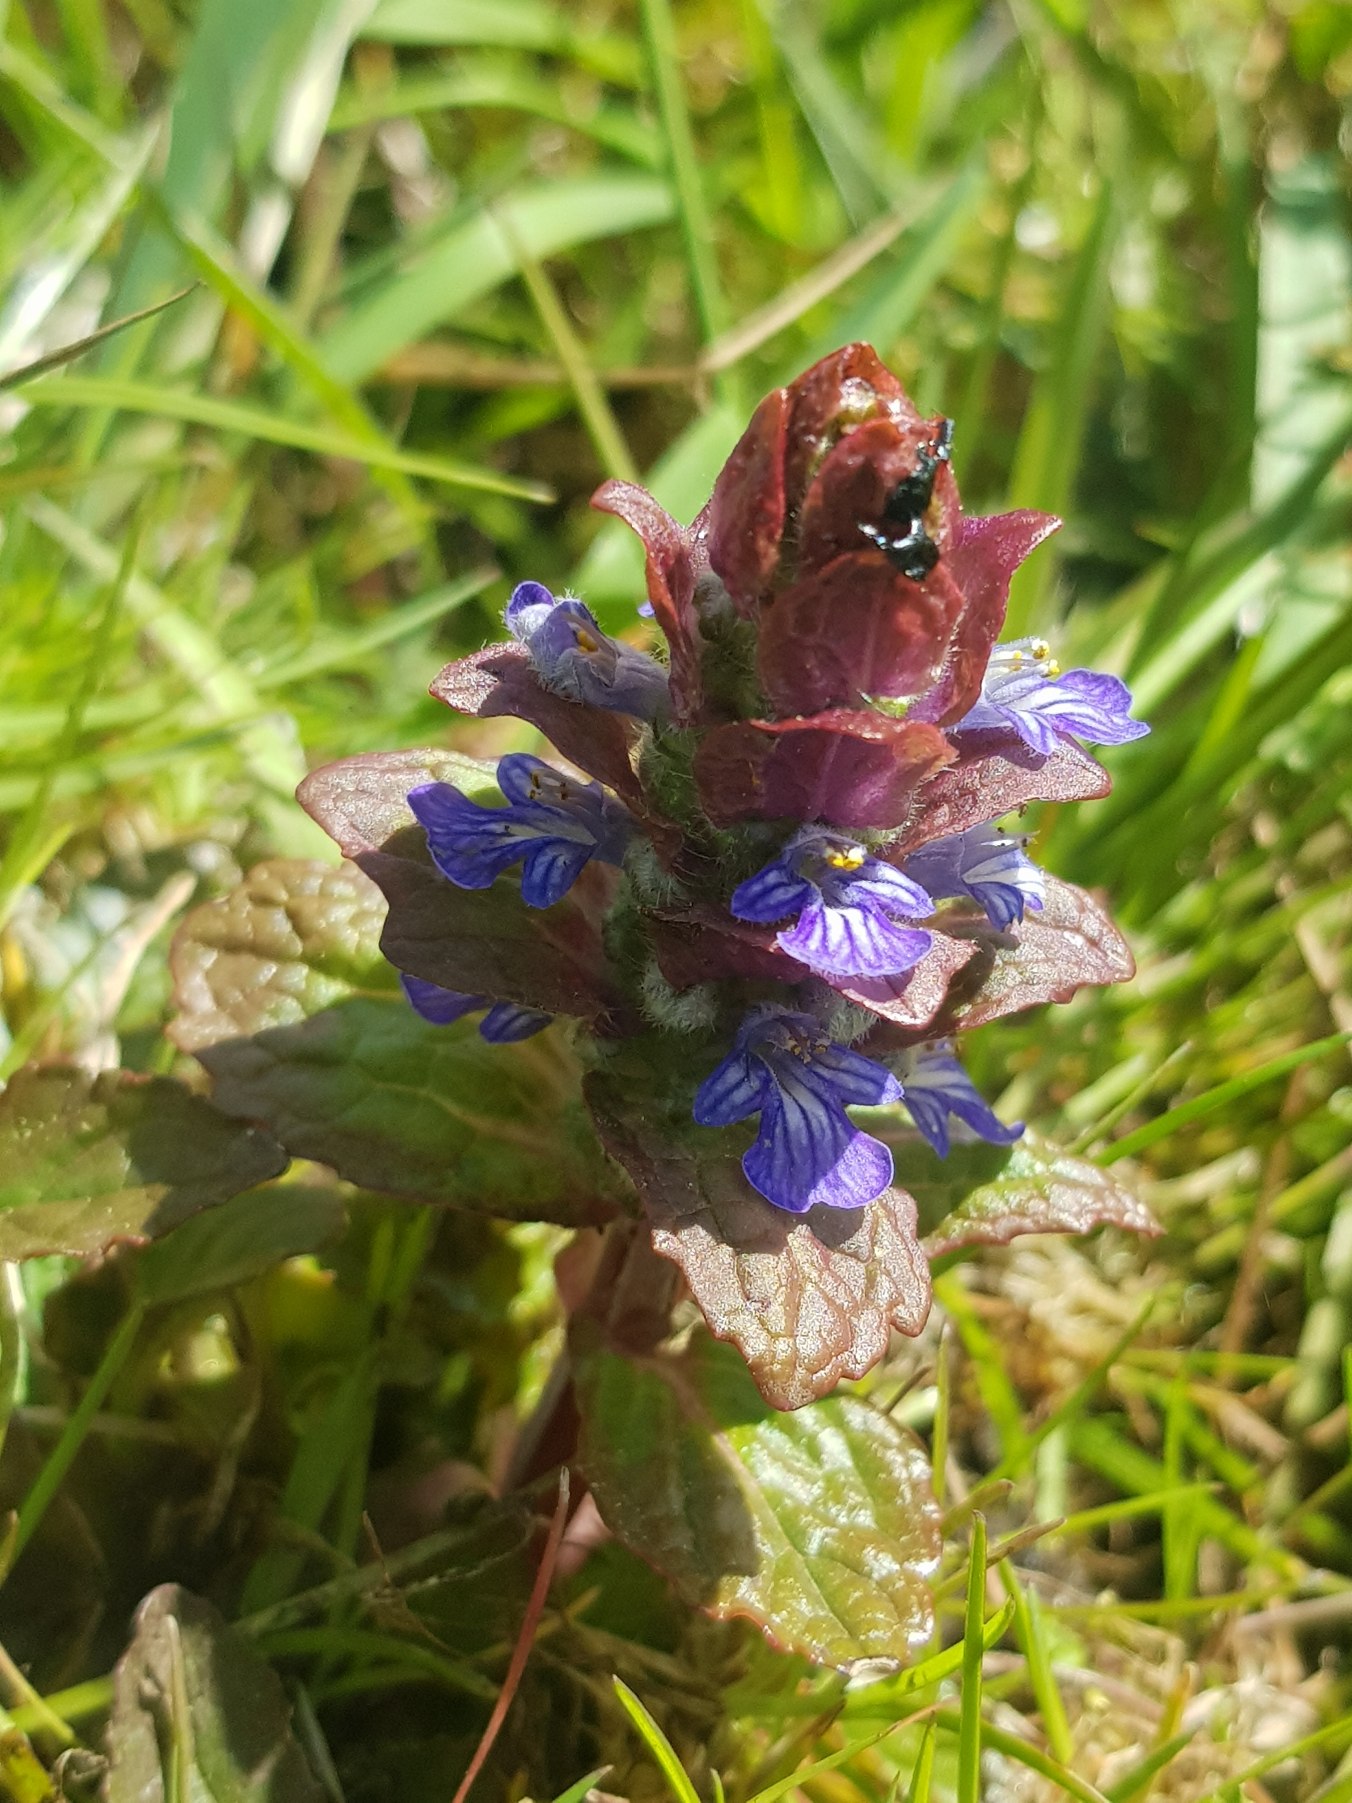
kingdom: Plantae
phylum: Tracheophyta
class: Magnoliopsida
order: Lamiales
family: Lamiaceae
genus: Ajuga
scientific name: Ajuga reptans
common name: Krybende læbeløs
